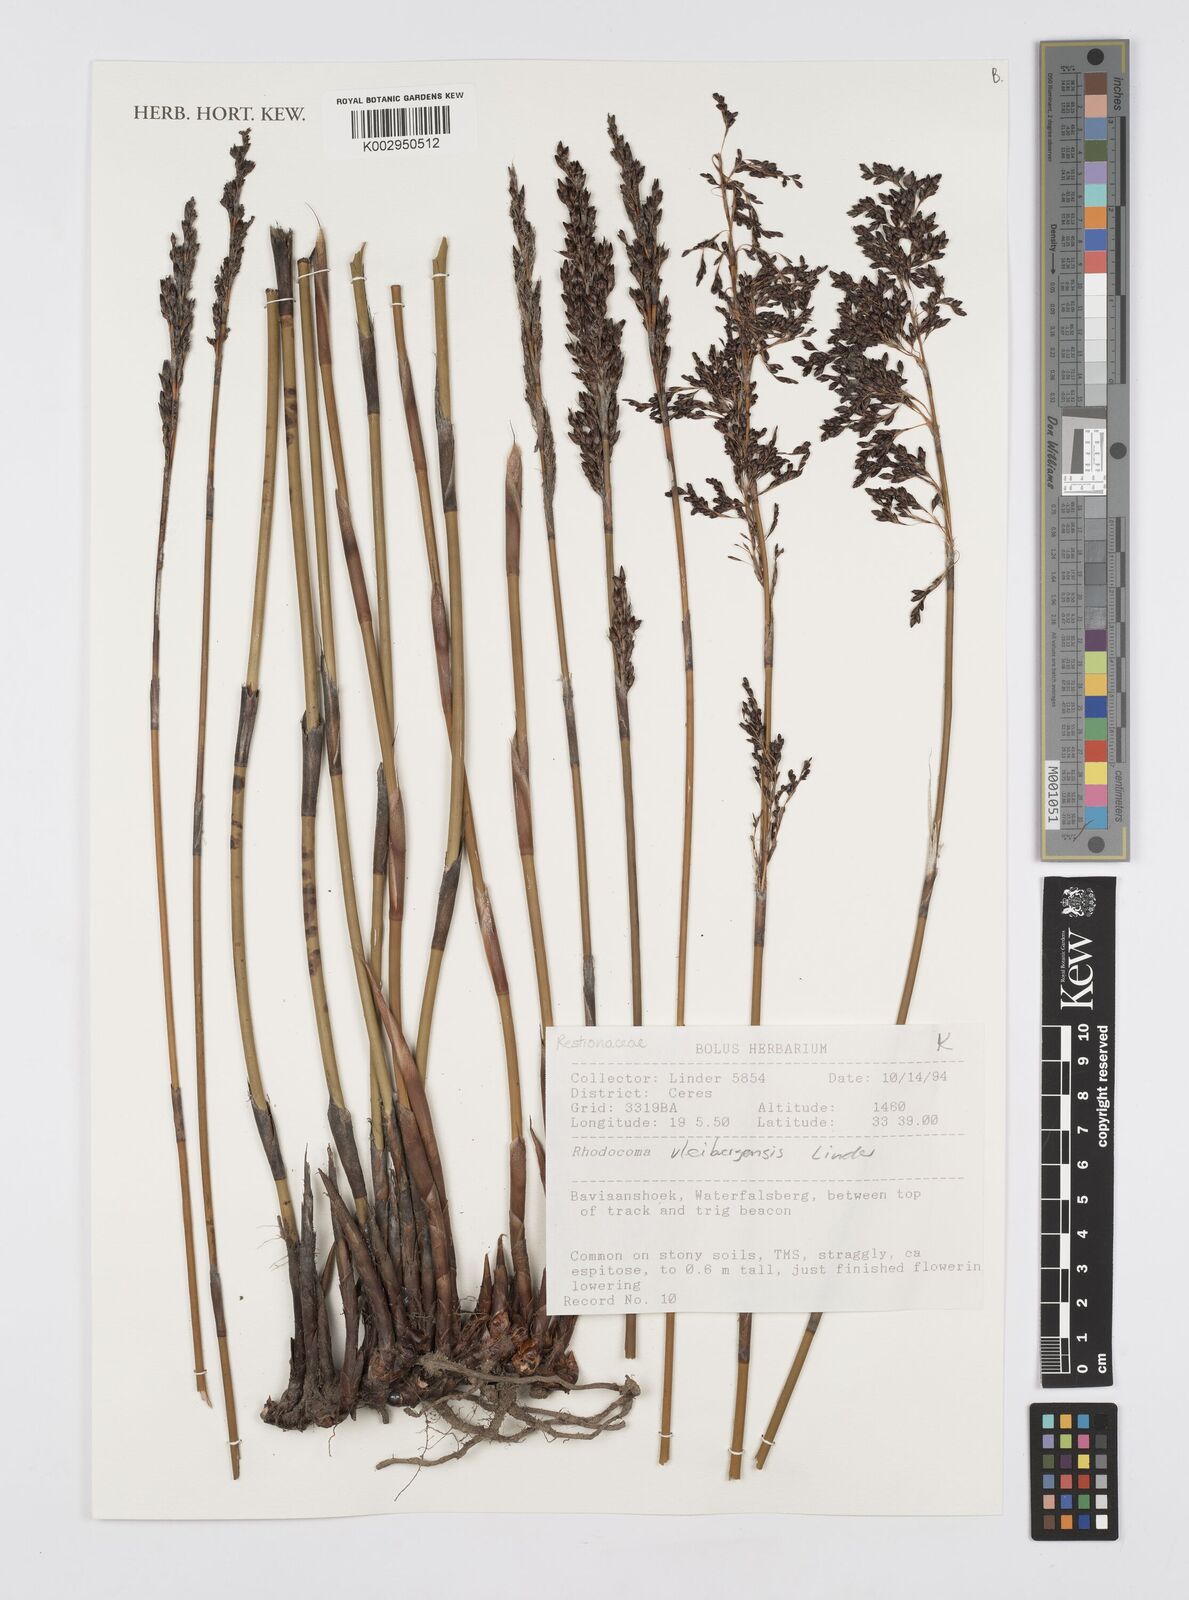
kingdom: Plantae
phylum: Tracheophyta
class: Liliopsida
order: Poales
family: Restionaceae
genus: Rhodocoma
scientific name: Rhodocoma vleibergensis
